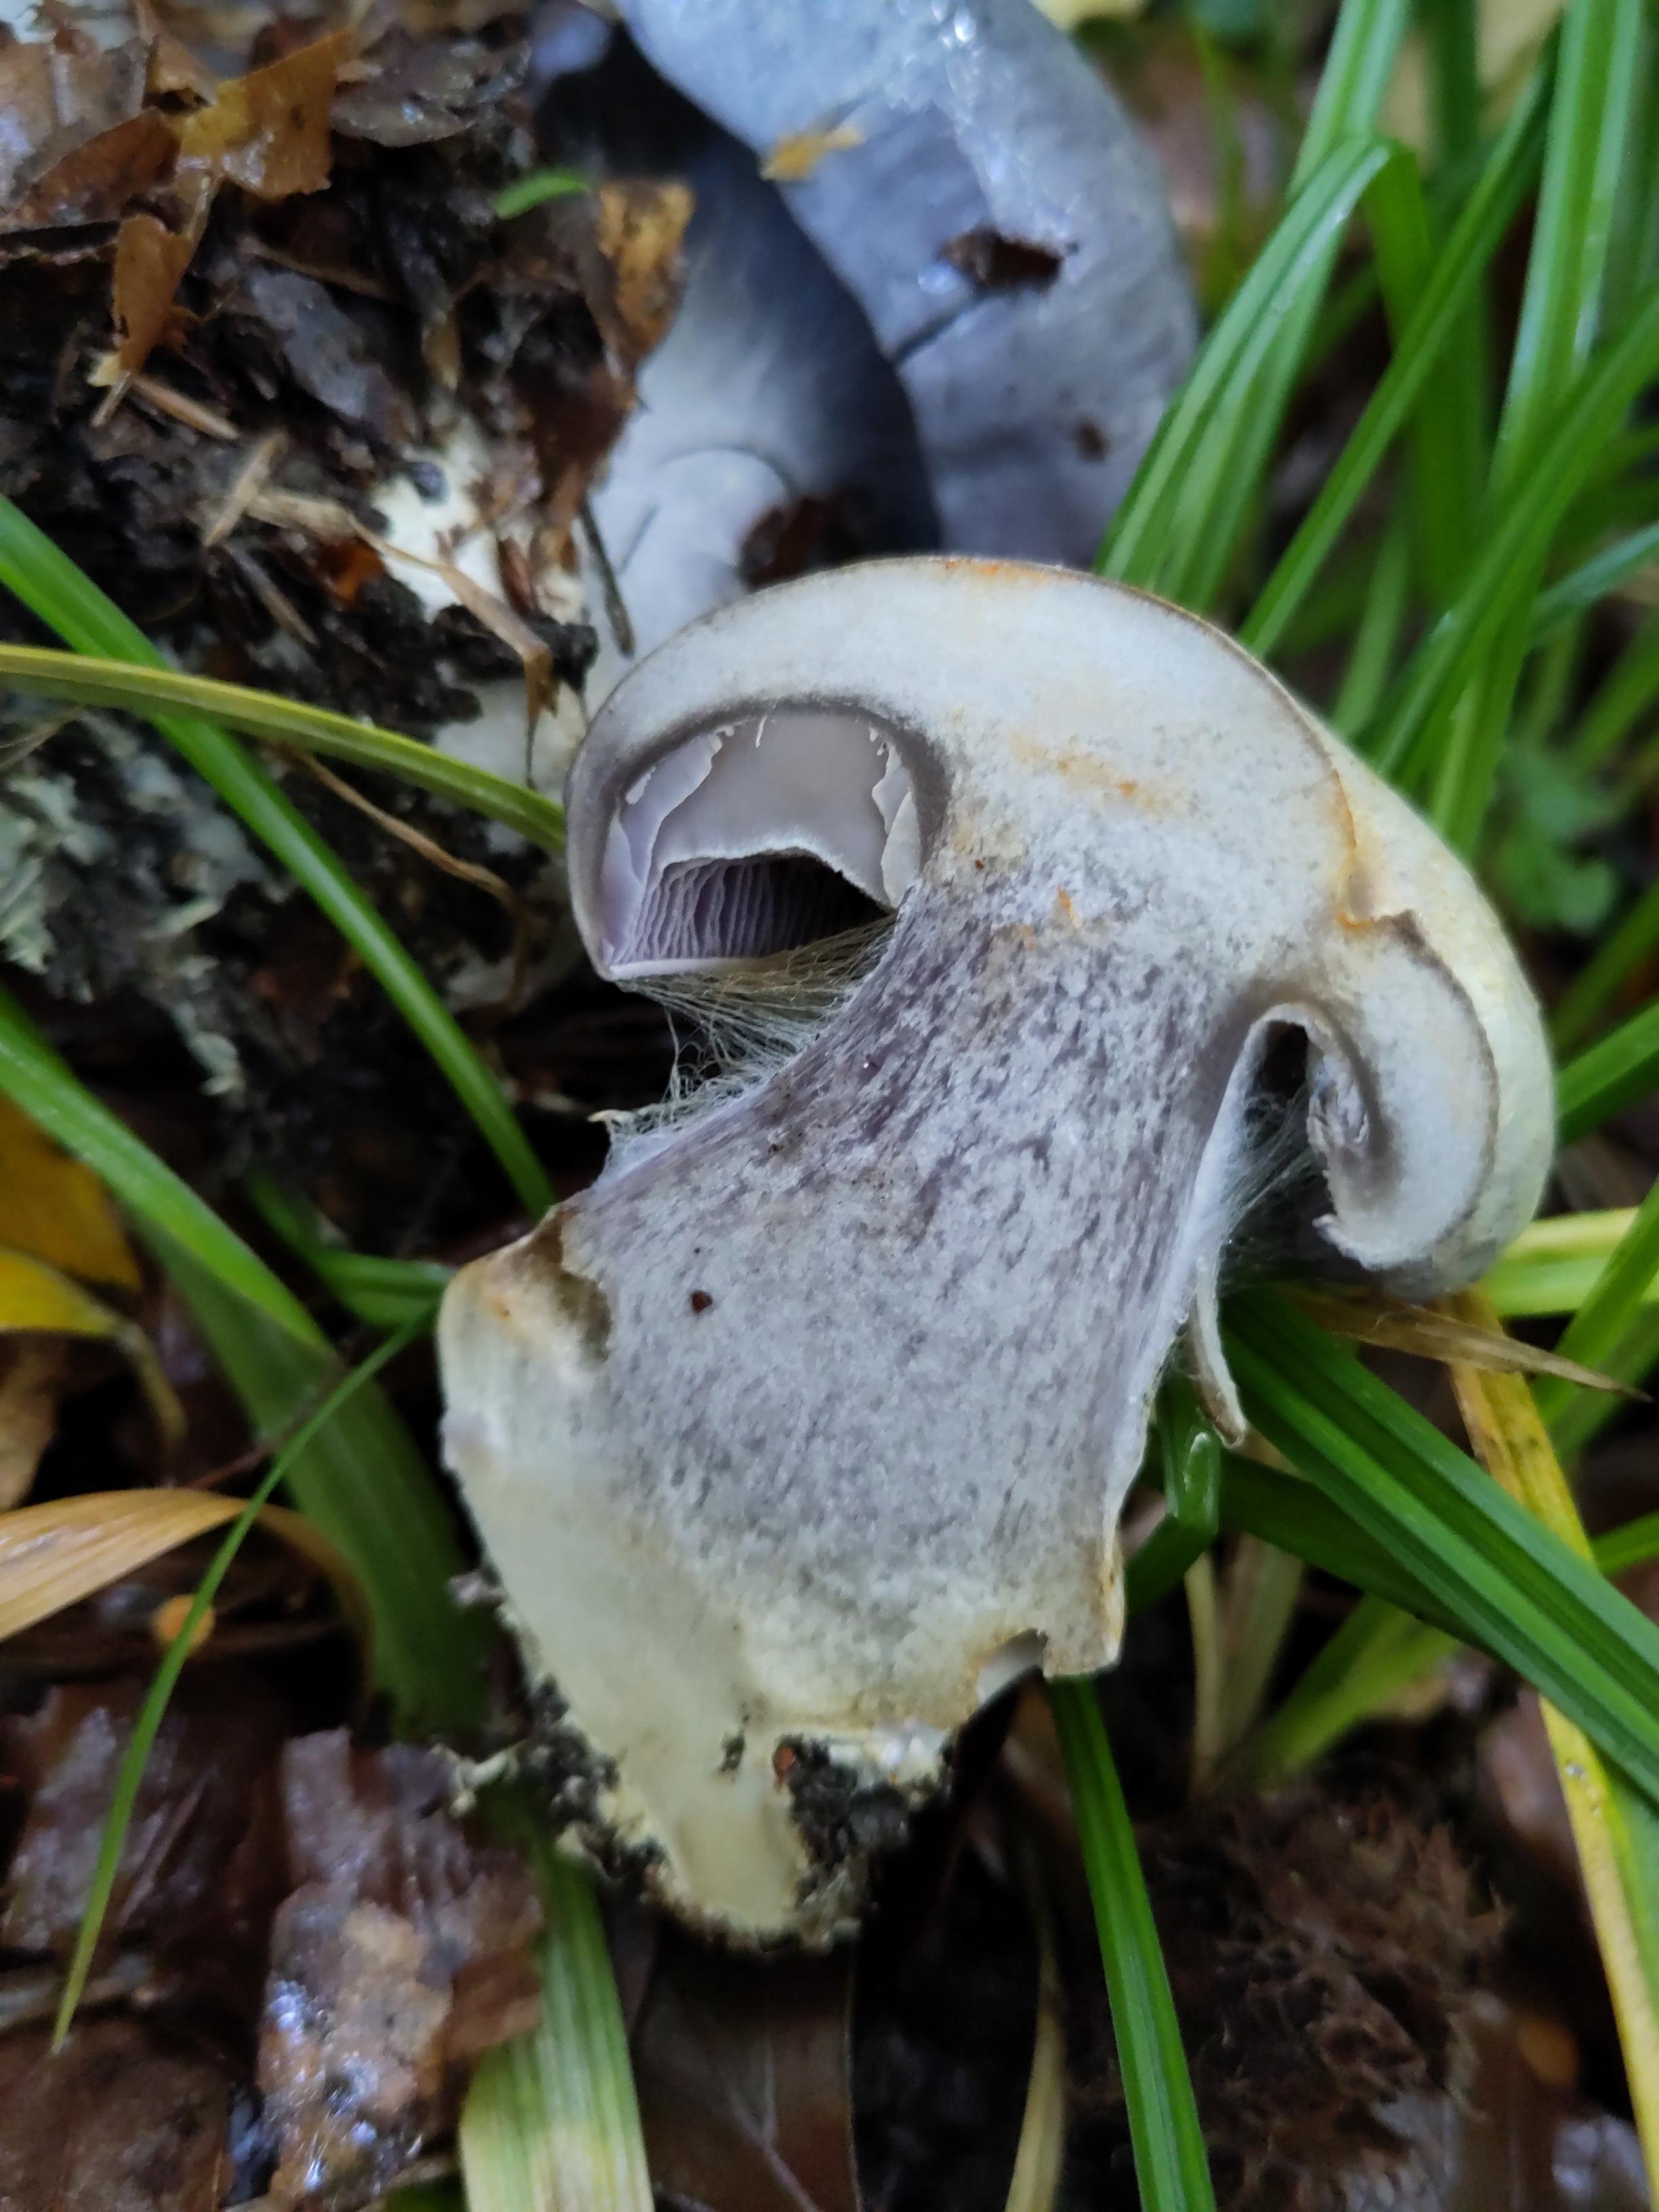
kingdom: Fungi
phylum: Basidiomycota
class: Agaricomycetes
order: Agaricales
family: Cortinariaceae
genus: Cortinarius
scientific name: Cortinarius caerulescens
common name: blåkødet slørhat
